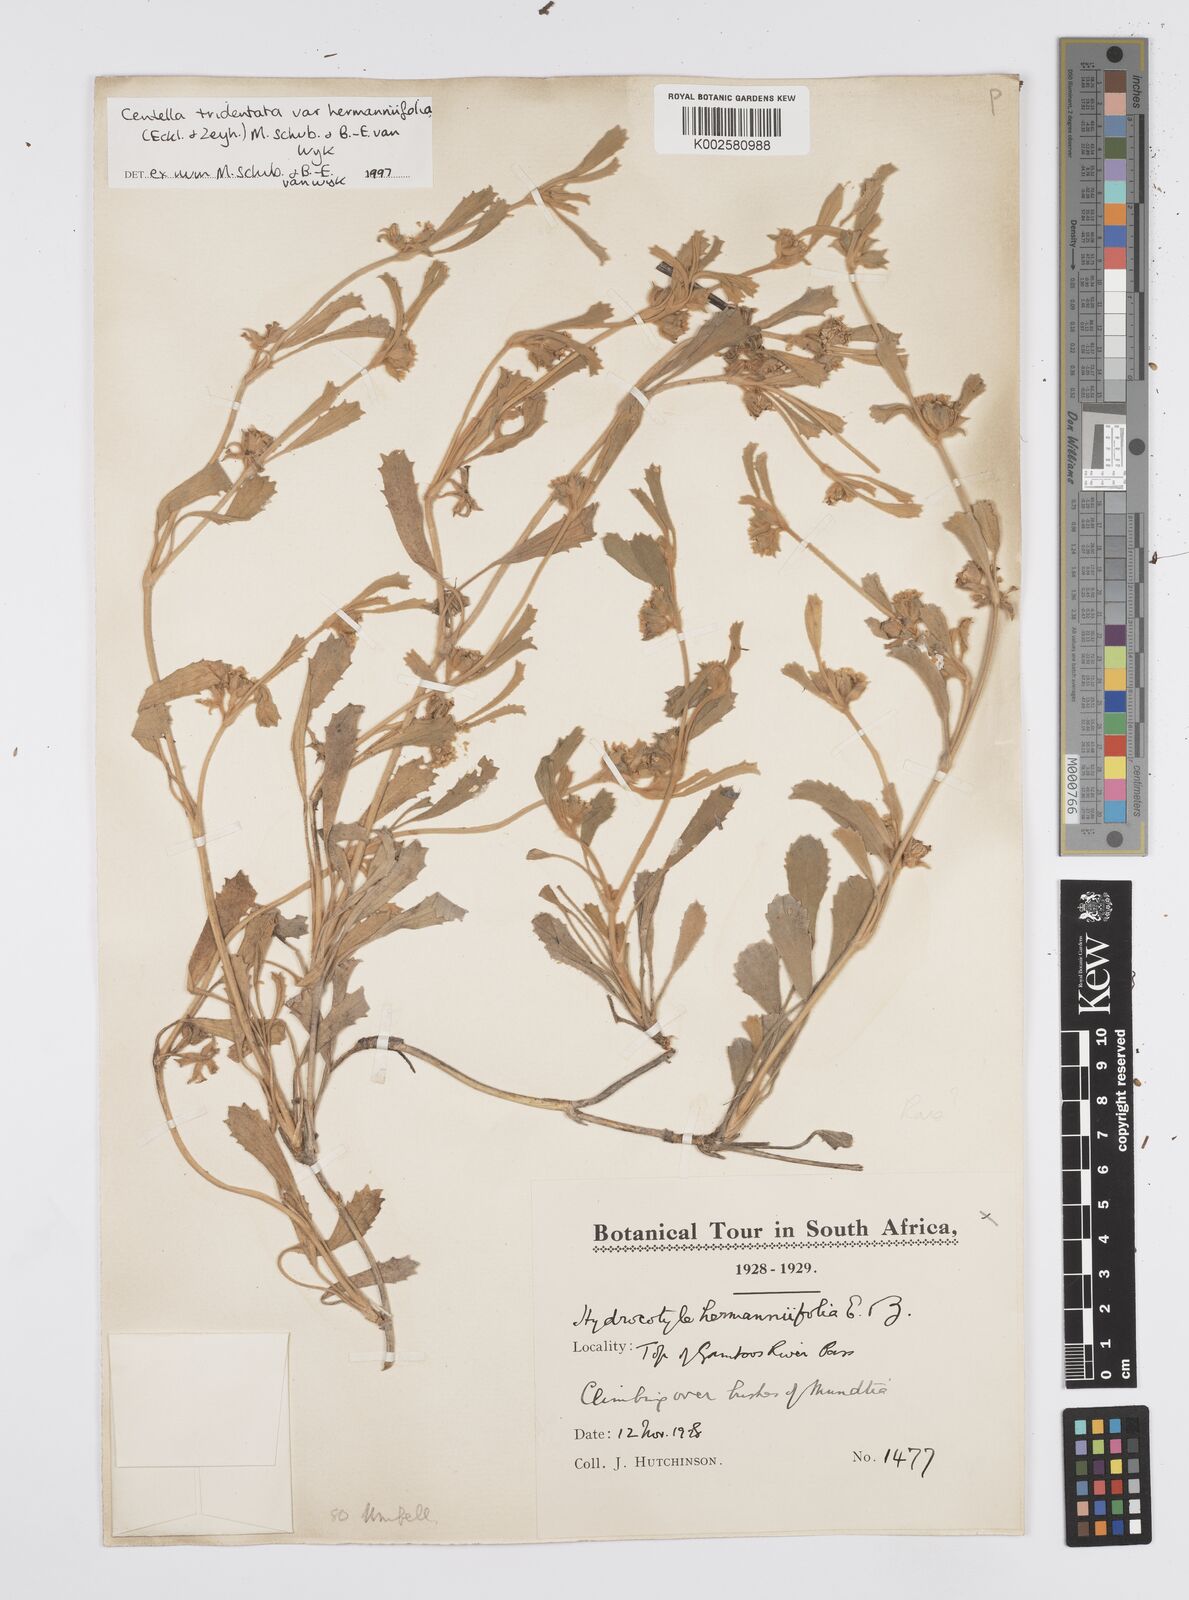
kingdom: Plantae
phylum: Tracheophyta
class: Magnoliopsida
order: Apiales
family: Apiaceae
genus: Centella
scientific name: Centella tridentata
